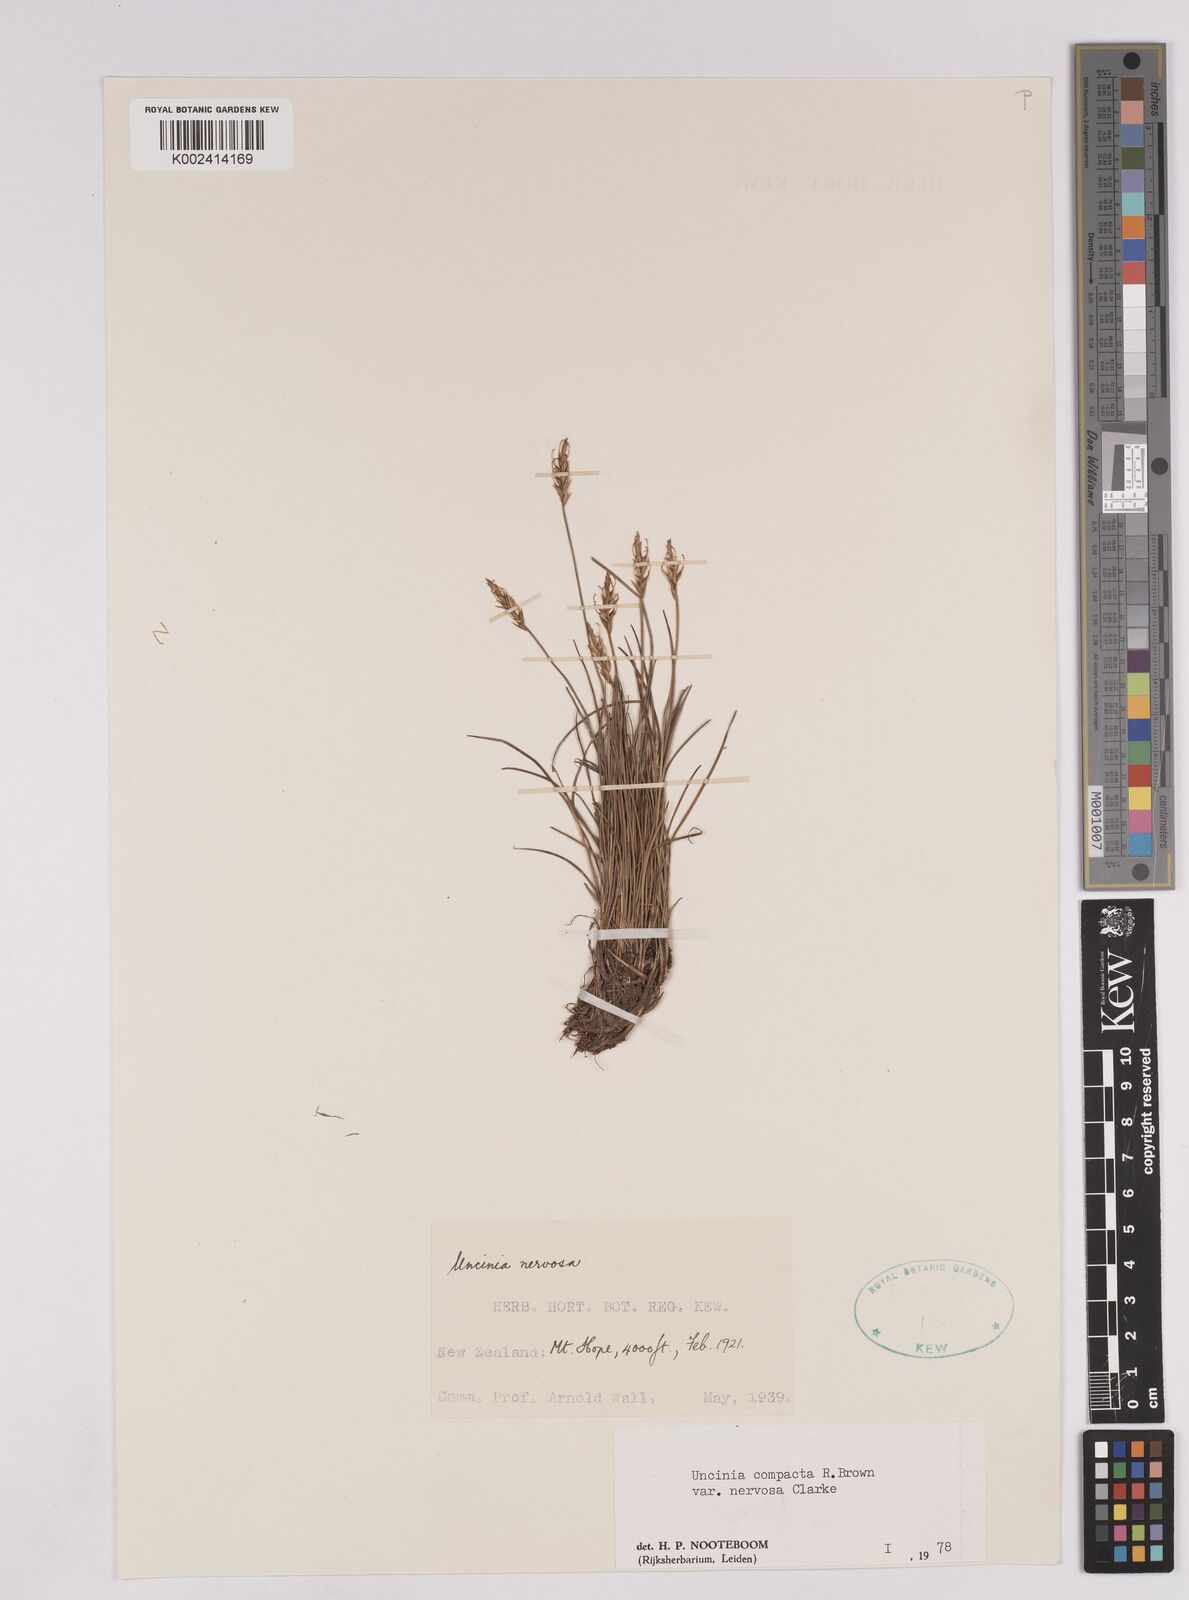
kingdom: Plantae
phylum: Tracheophyta
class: Liliopsida
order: Poales
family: Cyperaceae
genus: Carex
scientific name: Carex cheesemanniana
